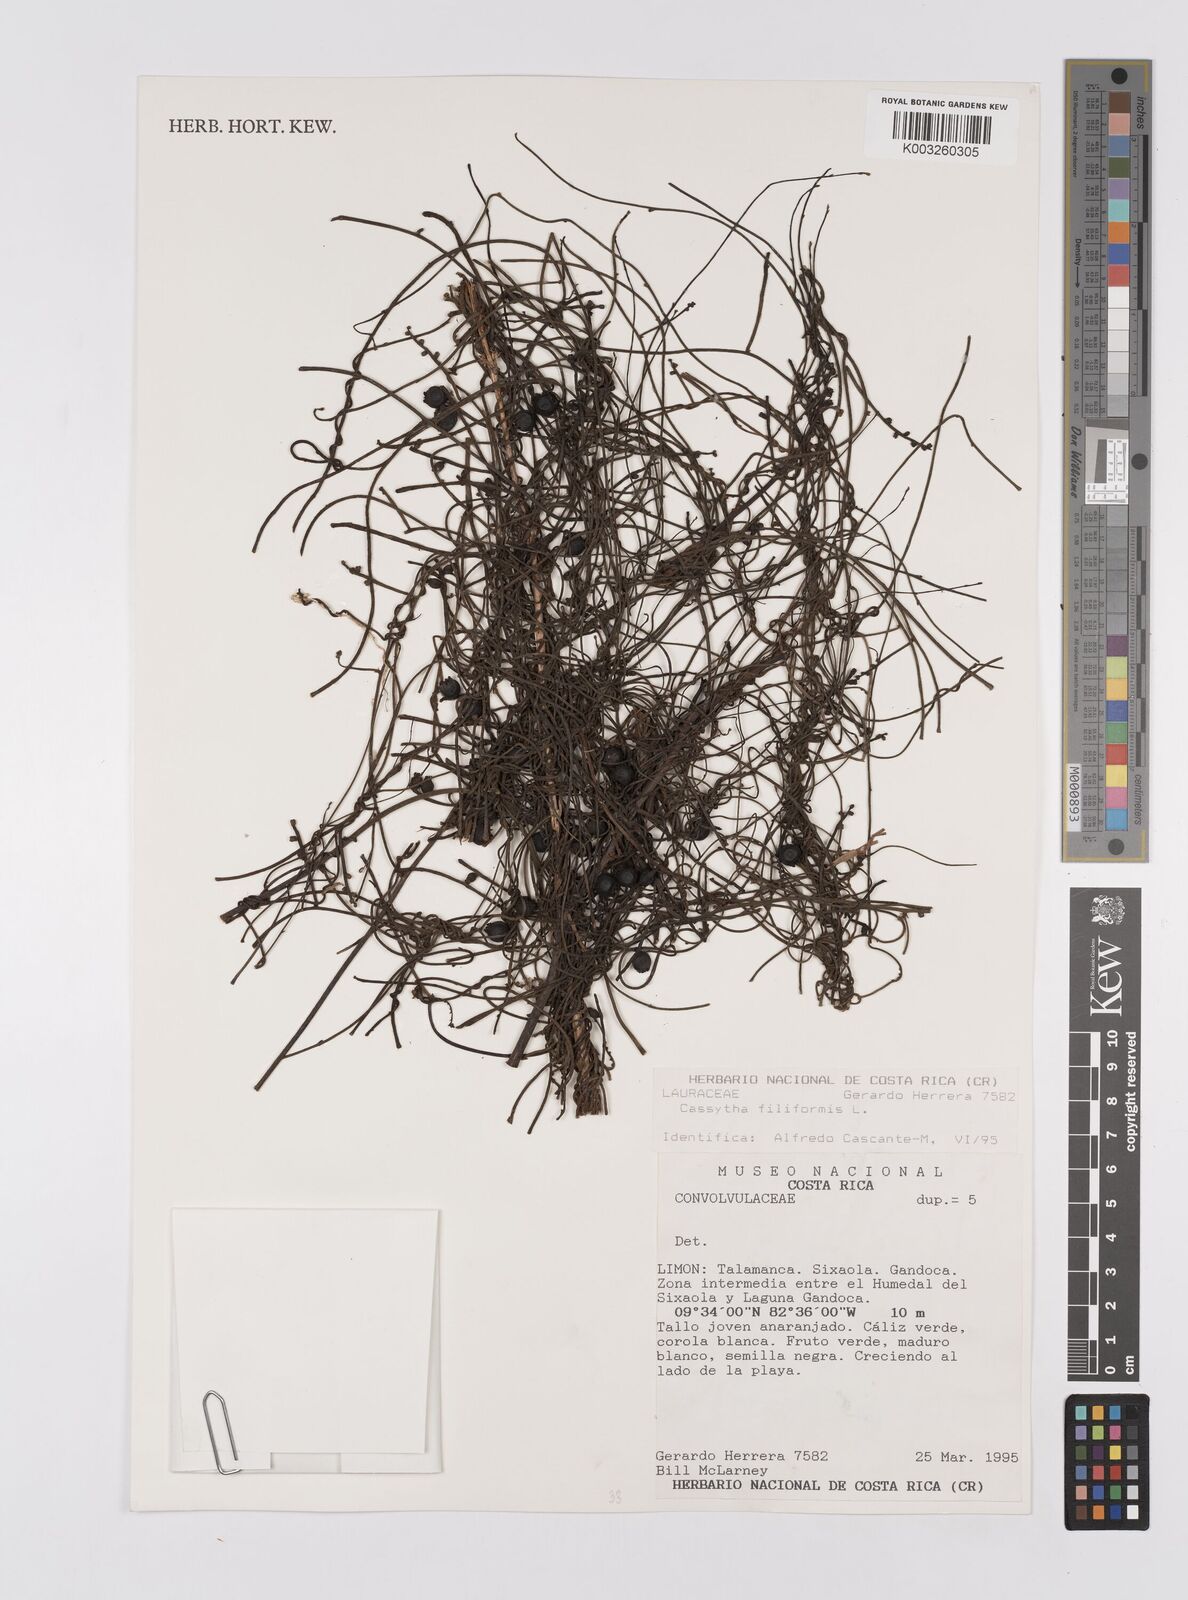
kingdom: Plantae
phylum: Tracheophyta
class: Magnoliopsida
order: Laurales
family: Lauraceae
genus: Cassytha
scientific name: Cassytha filiformis
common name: Dodder-laurel
